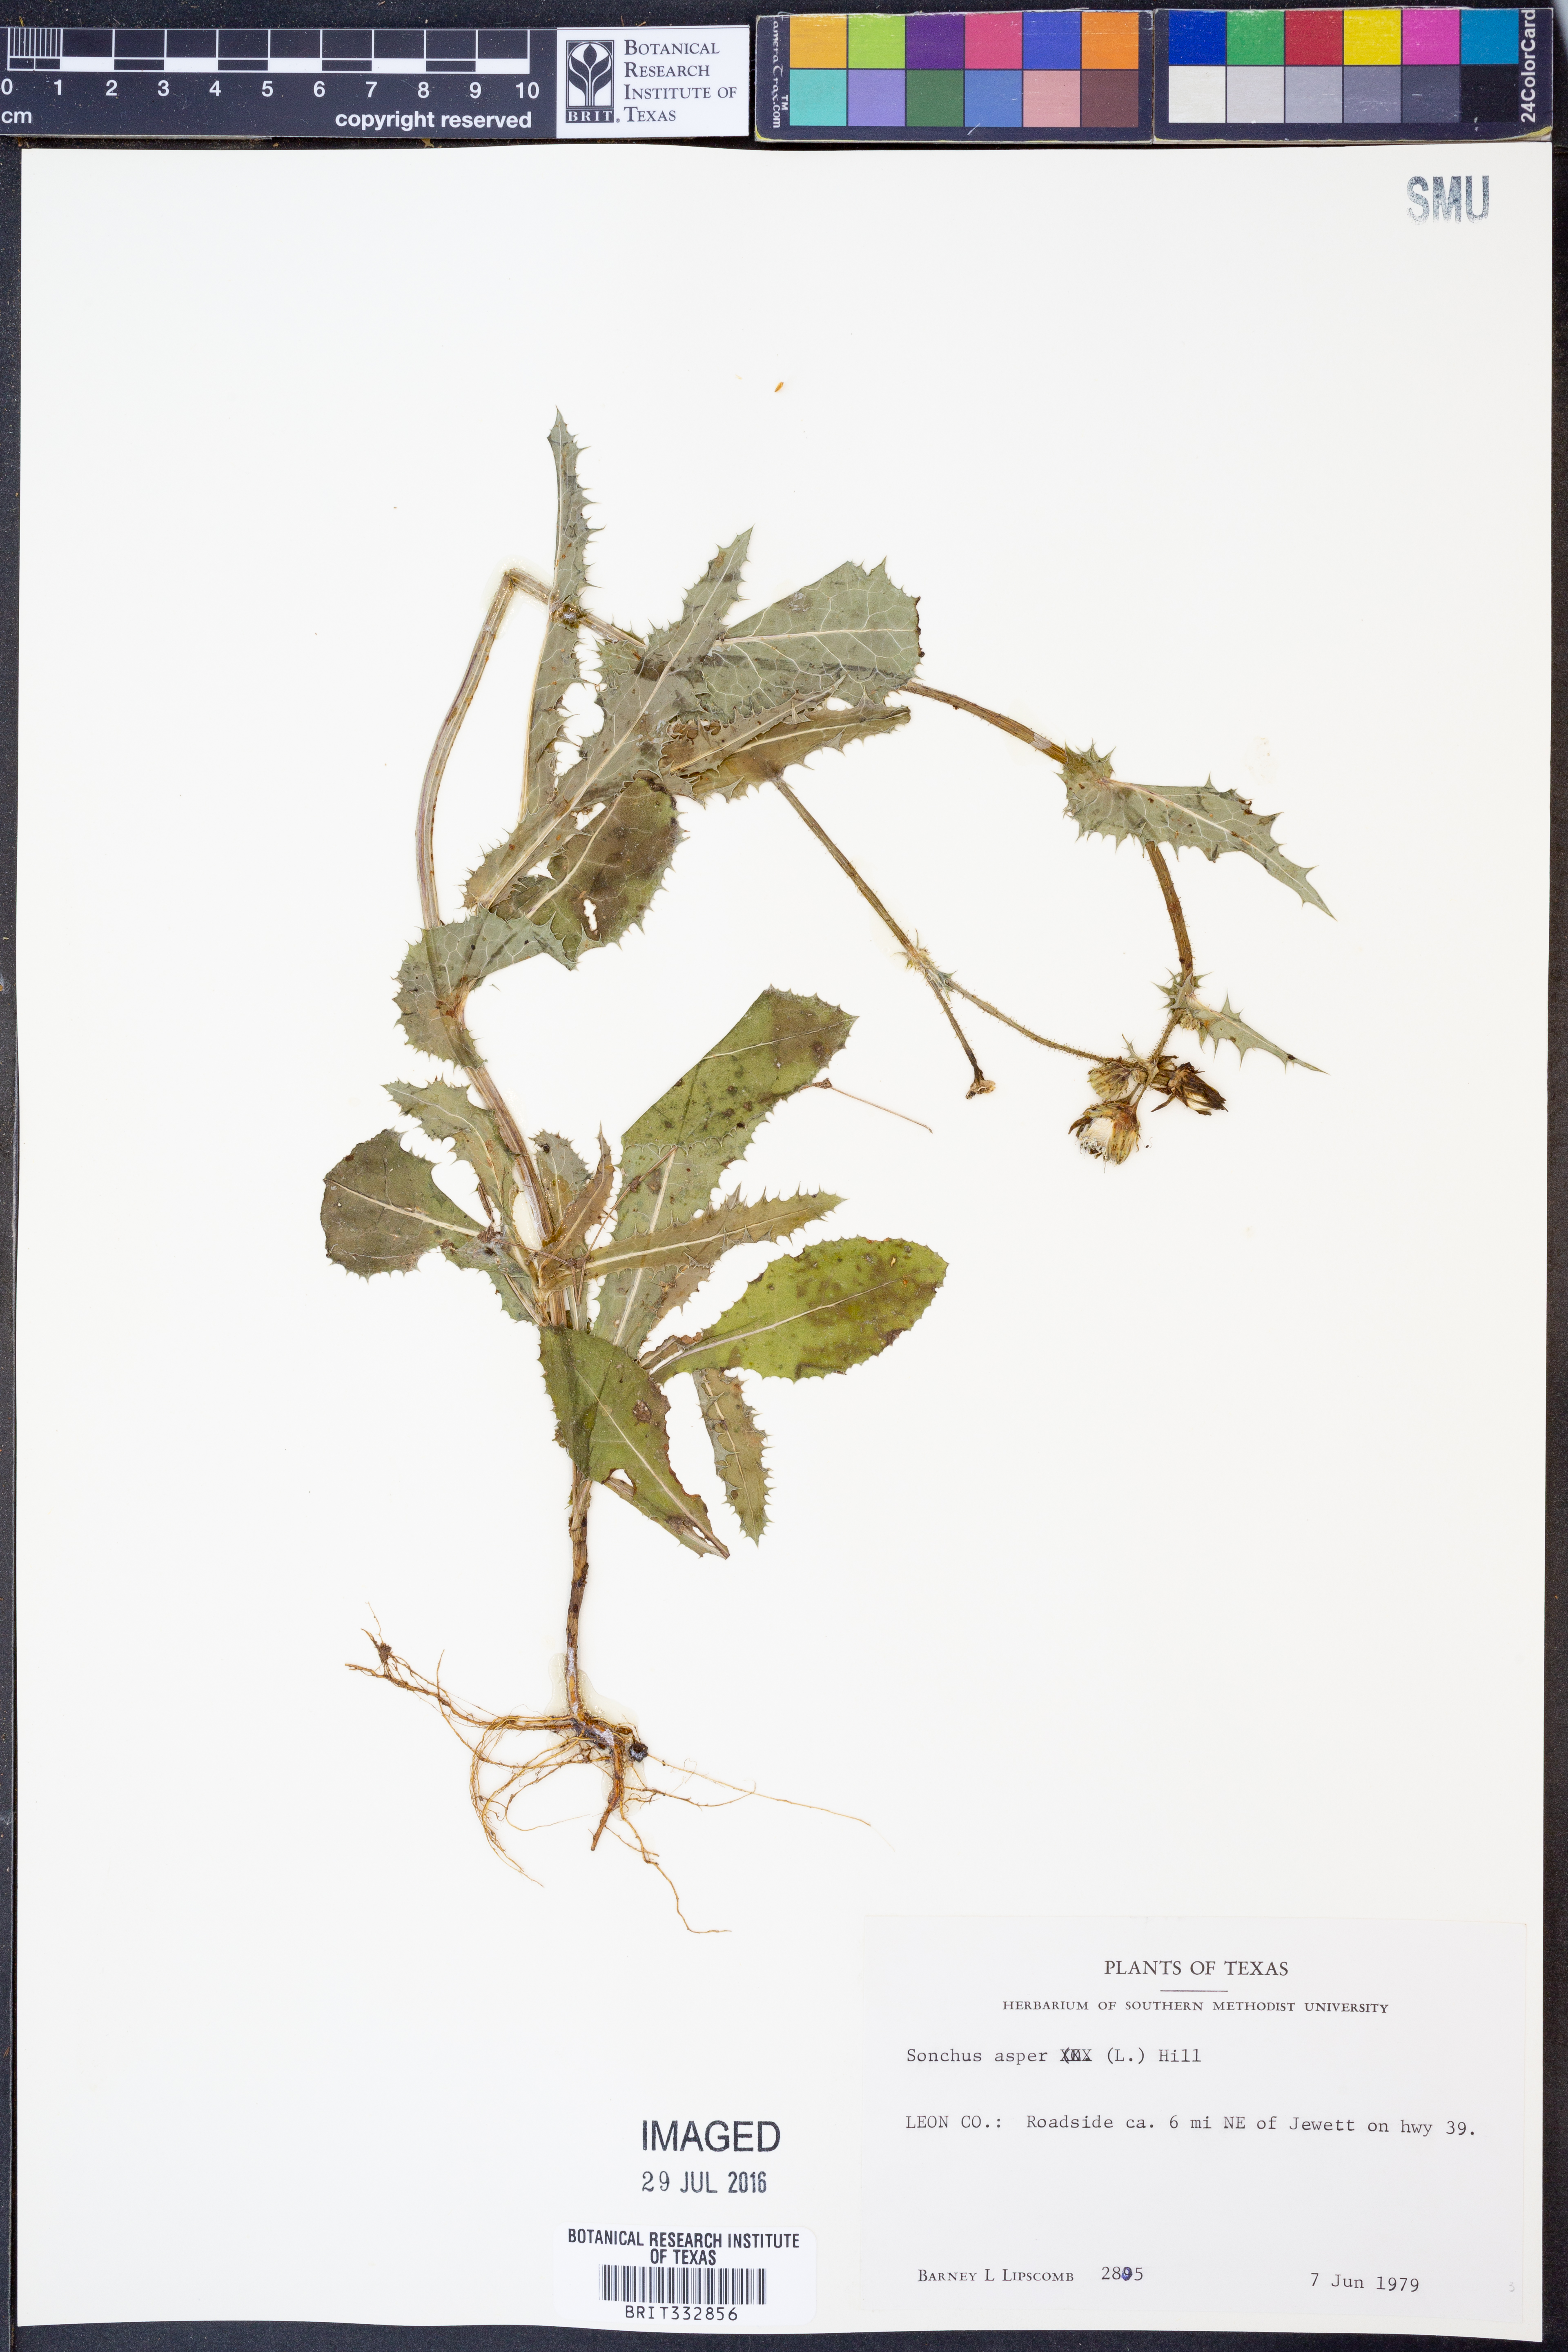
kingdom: Plantae
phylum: Tracheophyta
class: Magnoliopsida
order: Asterales
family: Asteraceae
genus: Sonchus
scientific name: Sonchus asper
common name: Prickly sow-thistle
